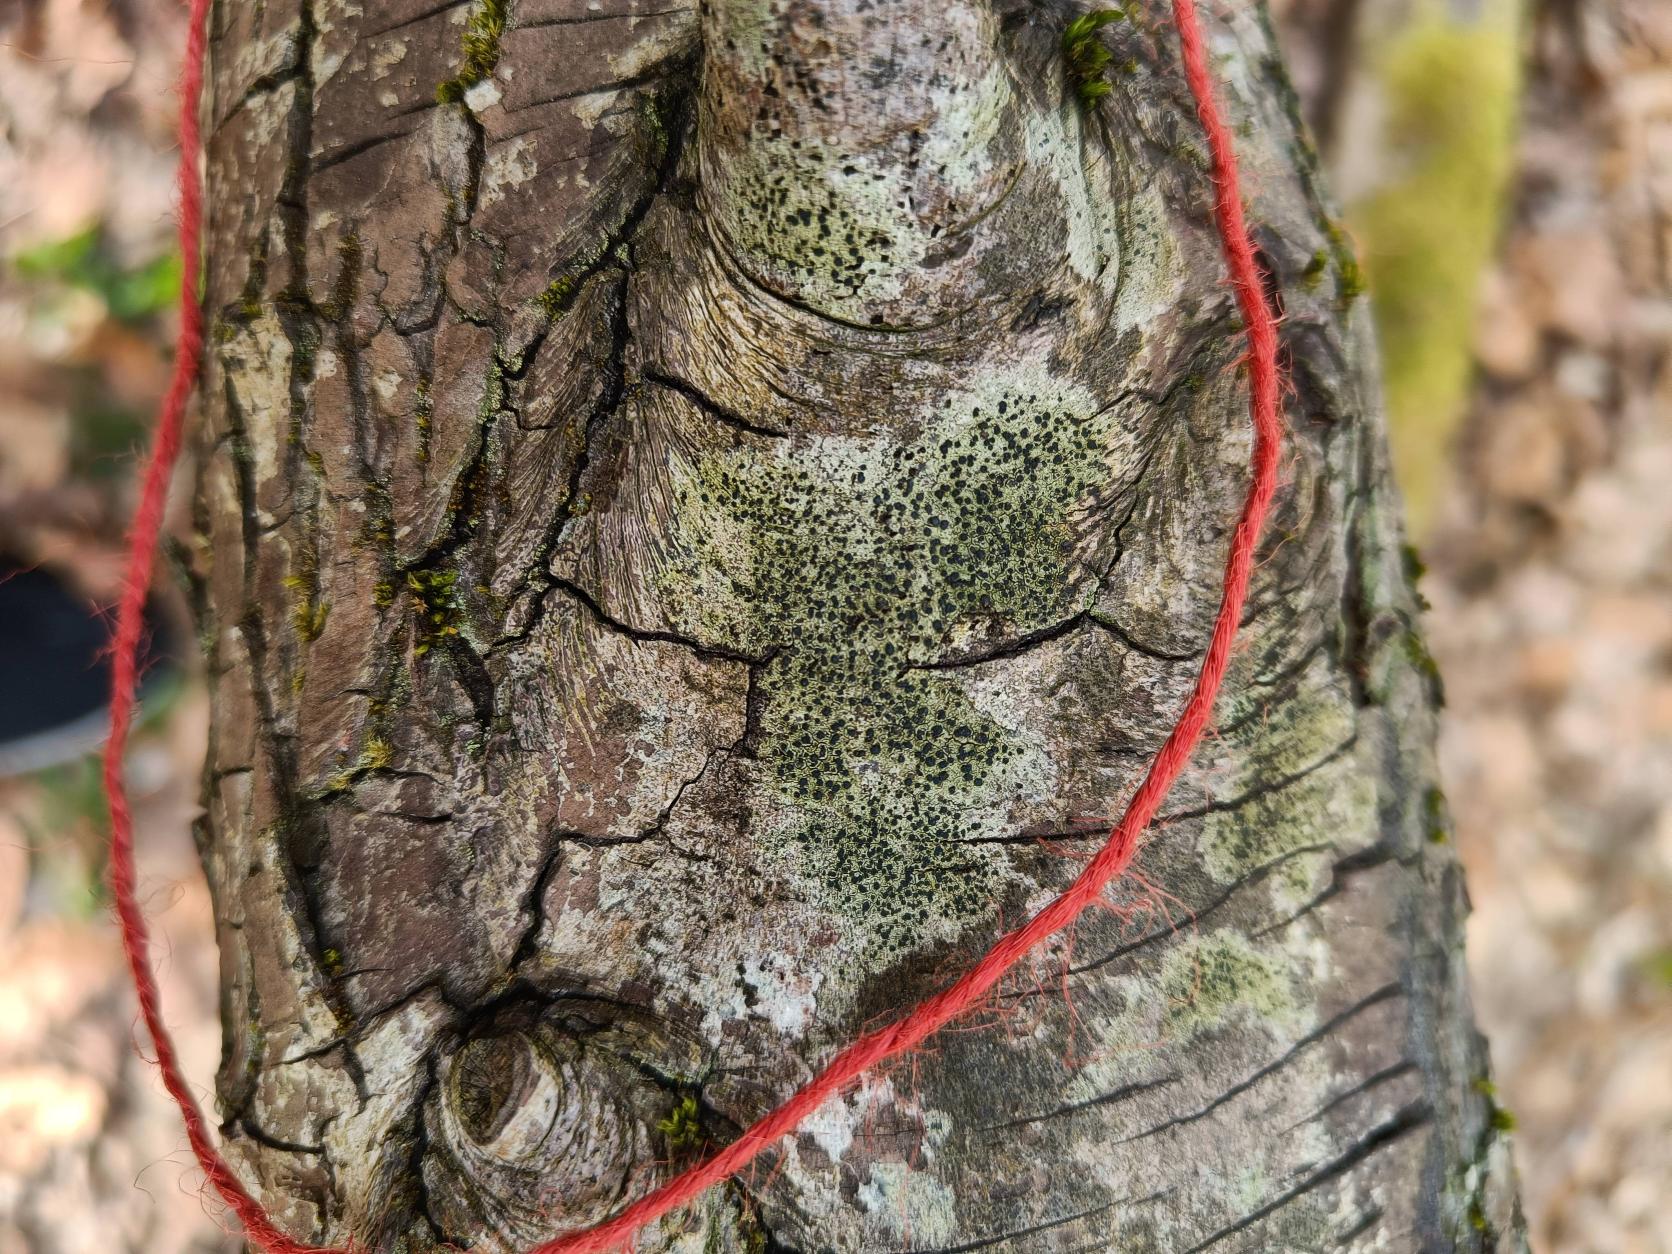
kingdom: Fungi
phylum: Ascomycota
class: Lecanoromycetes
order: Lecanorales
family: Lecanoraceae
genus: Lecidella
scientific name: Lecidella elaeochroma
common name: Grågrøn skivelav
